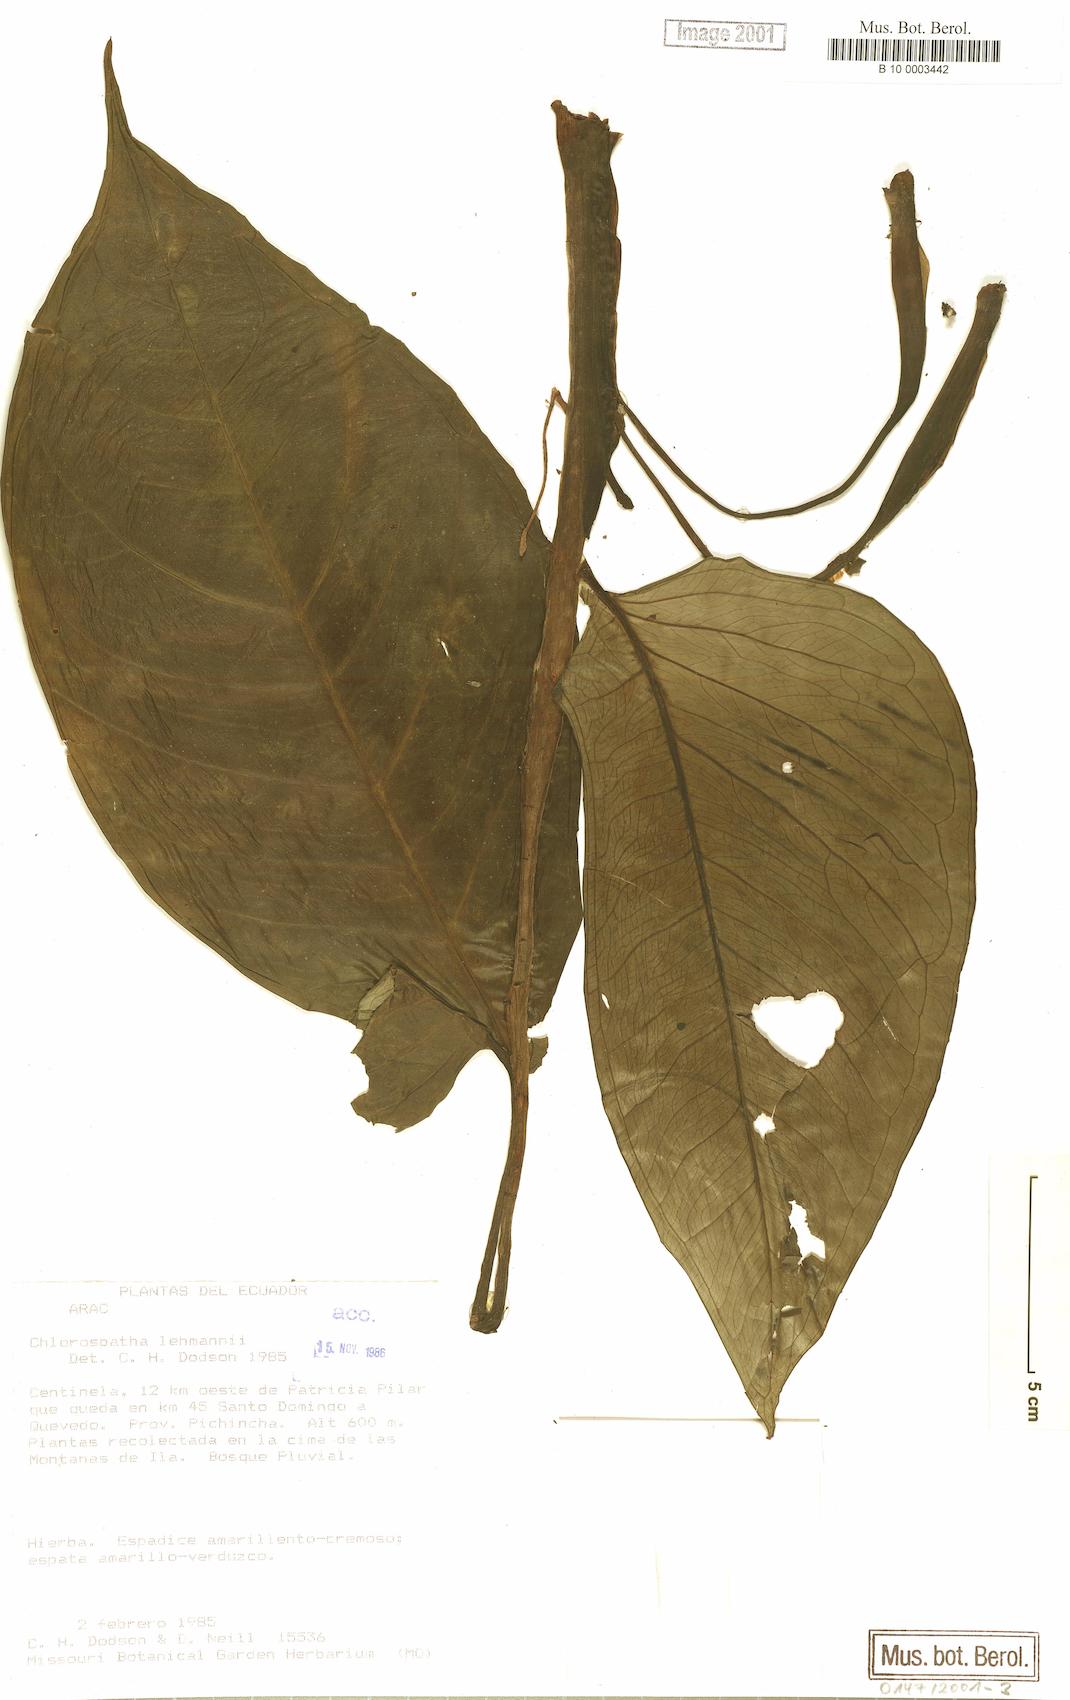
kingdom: Plantae
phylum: Tracheophyta
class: Liliopsida
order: Alismatales
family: Araceae
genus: Chlorospatha
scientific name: Chlorospatha lehmannii
